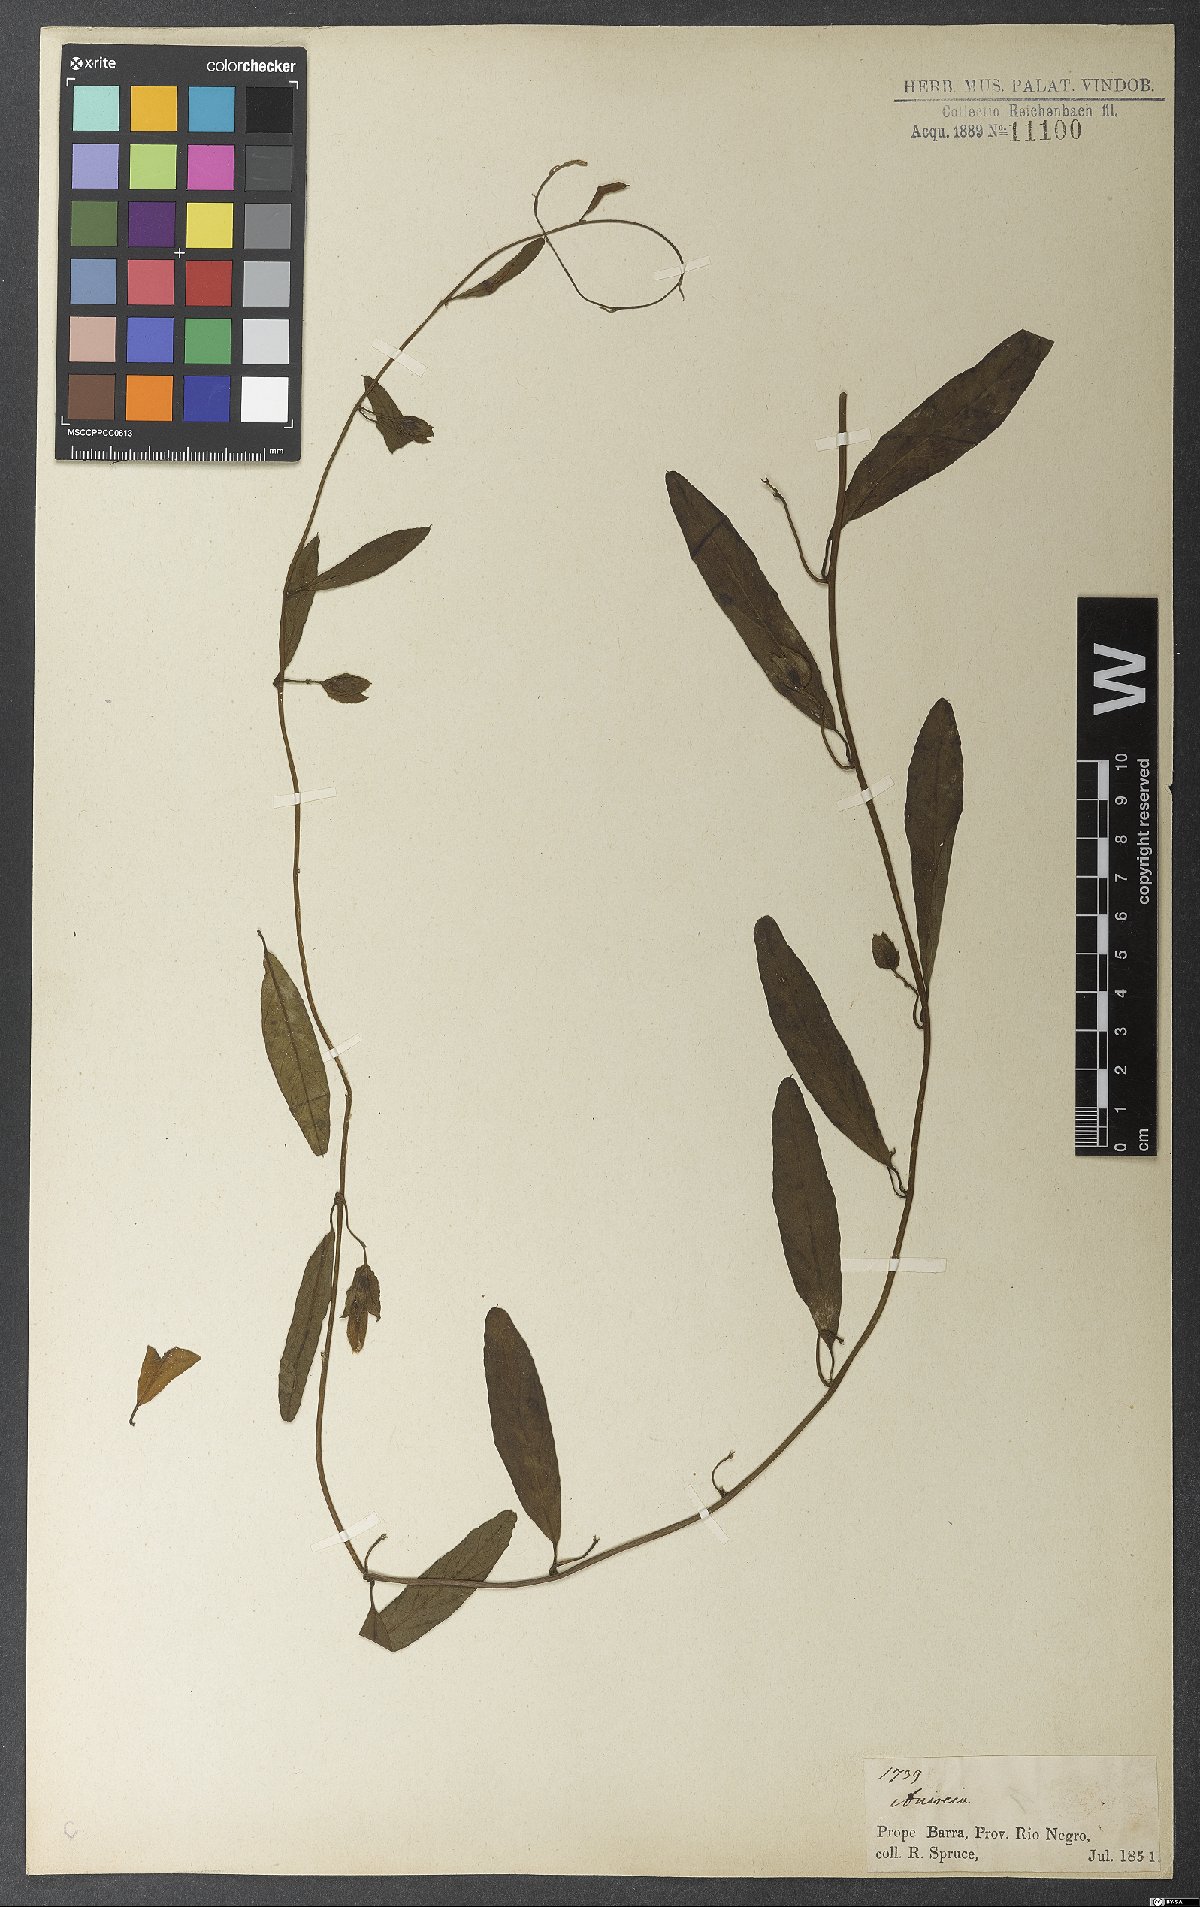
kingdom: Plantae
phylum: Tracheophyta
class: Magnoliopsida
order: Solanales
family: Convolvulaceae
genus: Aniseia
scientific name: Aniseia martinicensis
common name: Kulayadambu
